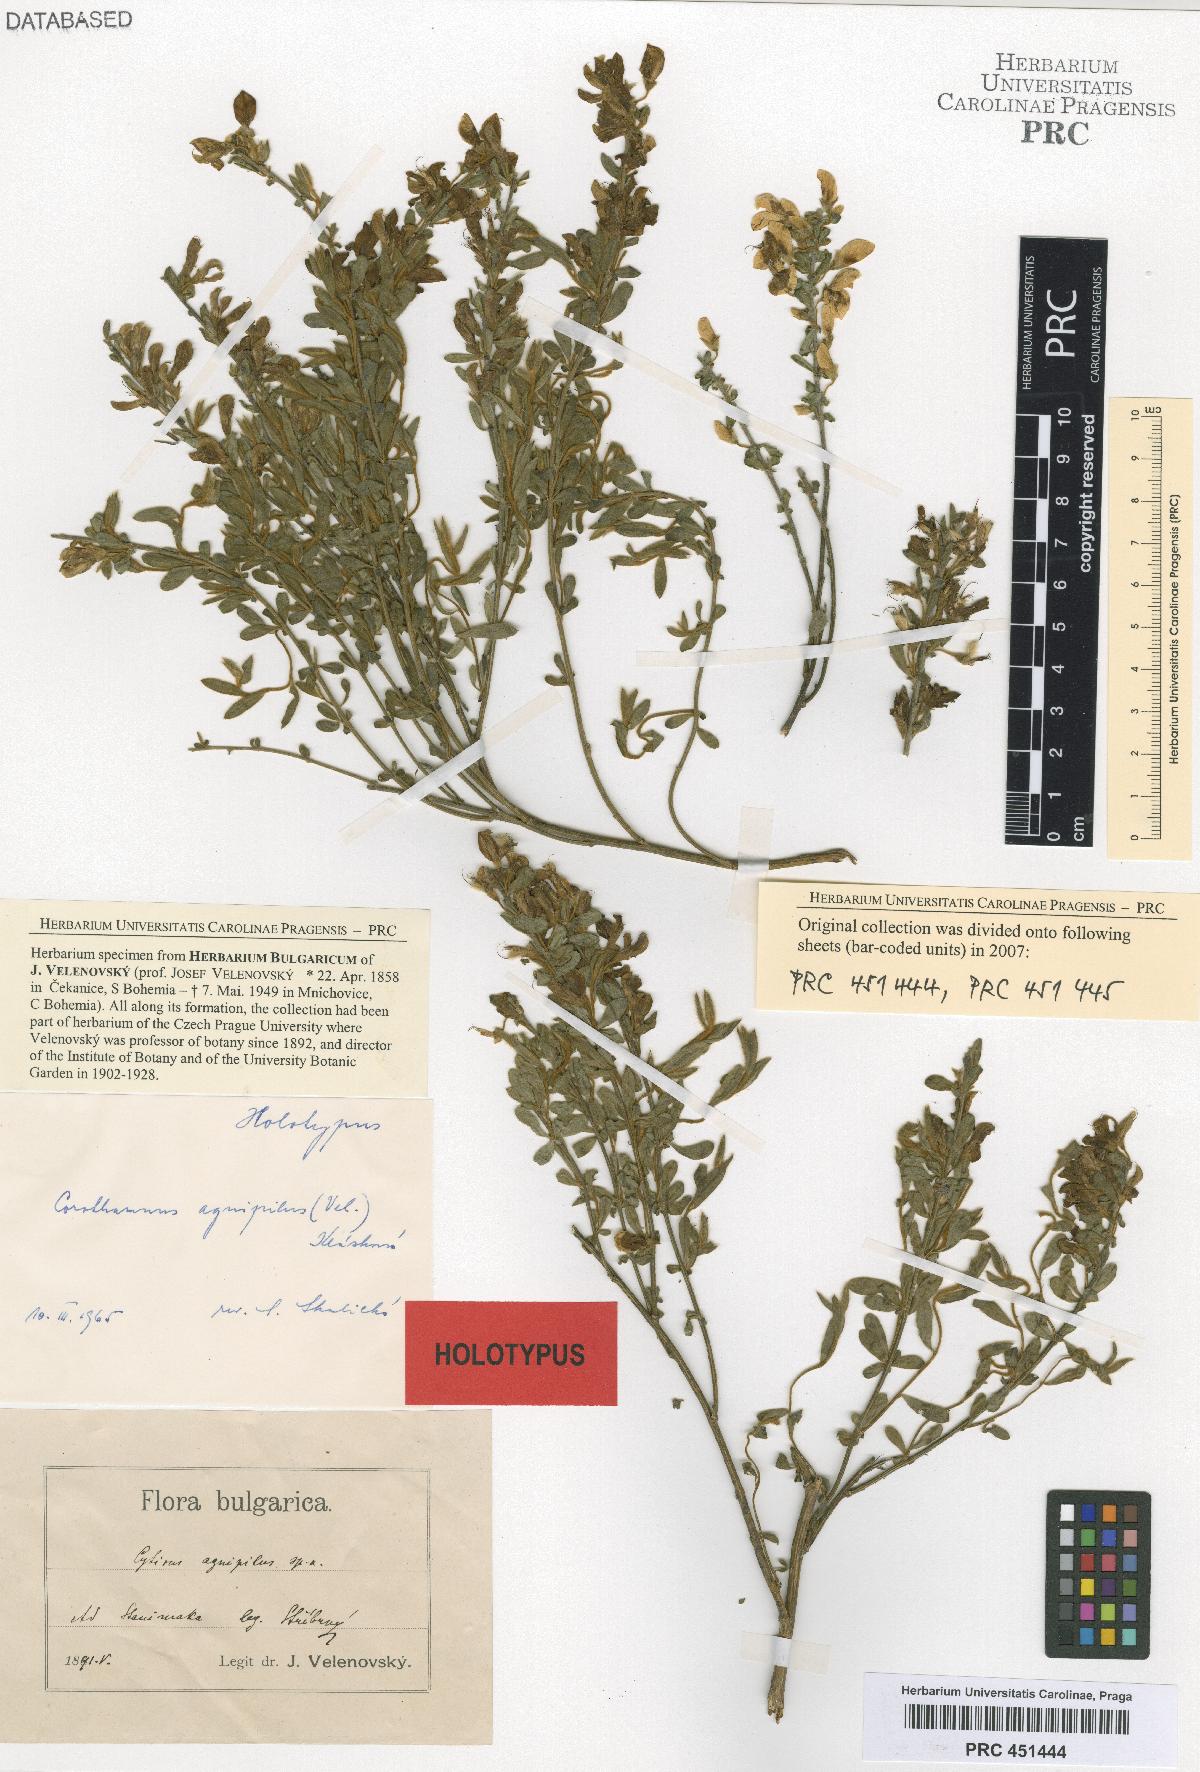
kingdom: Plantae
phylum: Tracheophyta
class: Magnoliopsida
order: Fabales
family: Fabaceae
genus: Cytisus
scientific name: Cytisus agnipilus
